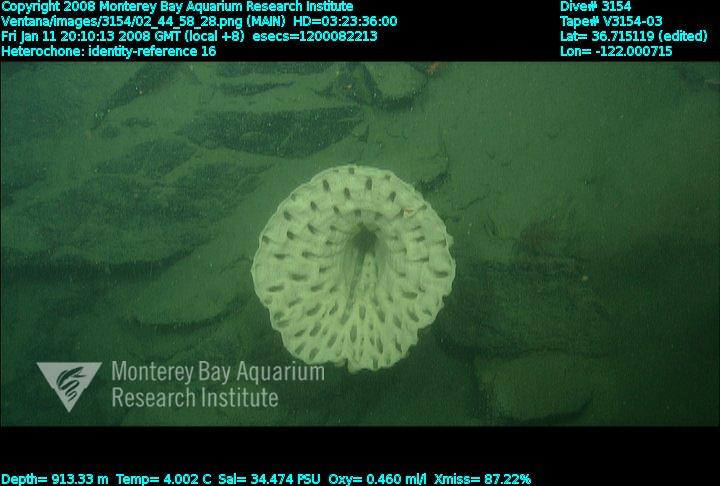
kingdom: Animalia
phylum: Porifera
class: Hexactinellida
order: Sceptrulophora
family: Aphrocallistidae
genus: Heterochone
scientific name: Heterochone
